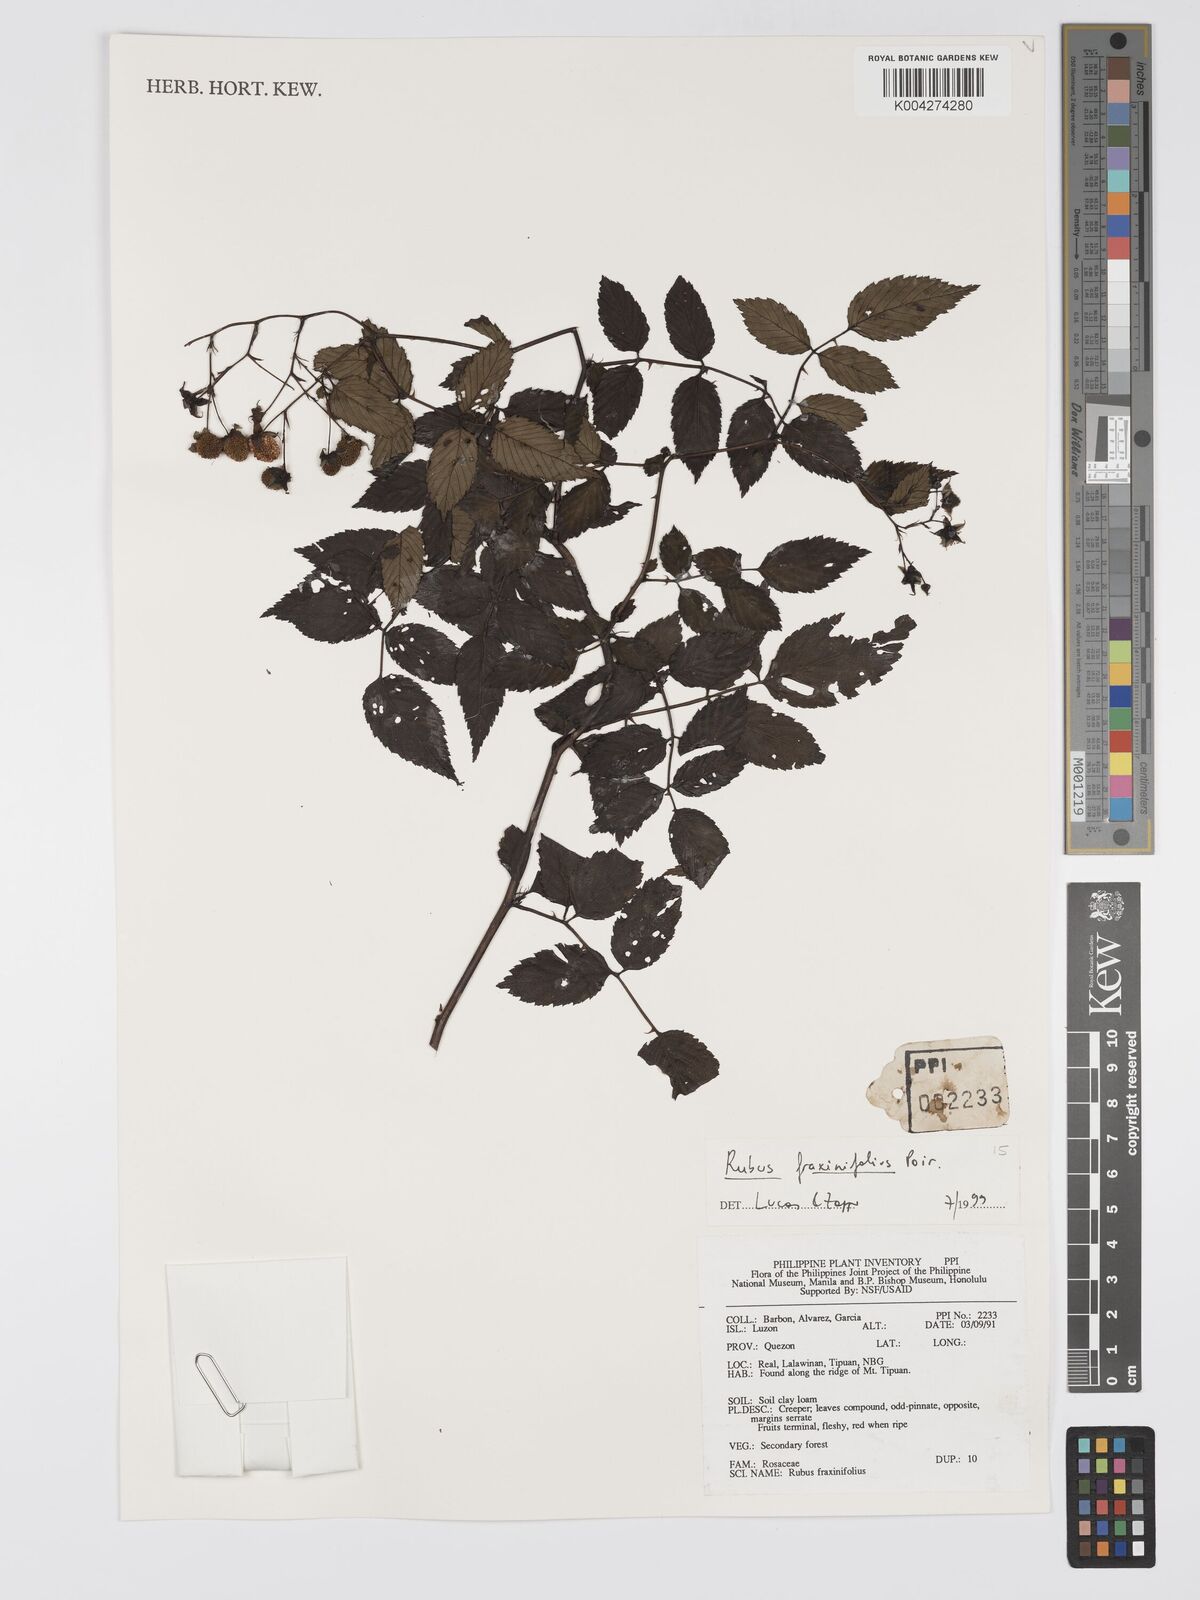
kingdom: Plantae
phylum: Tracheophyta
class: Magnoliopsida
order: Rosales
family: Rosaceae
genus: Rubus
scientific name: Rubus fraxinifolius
